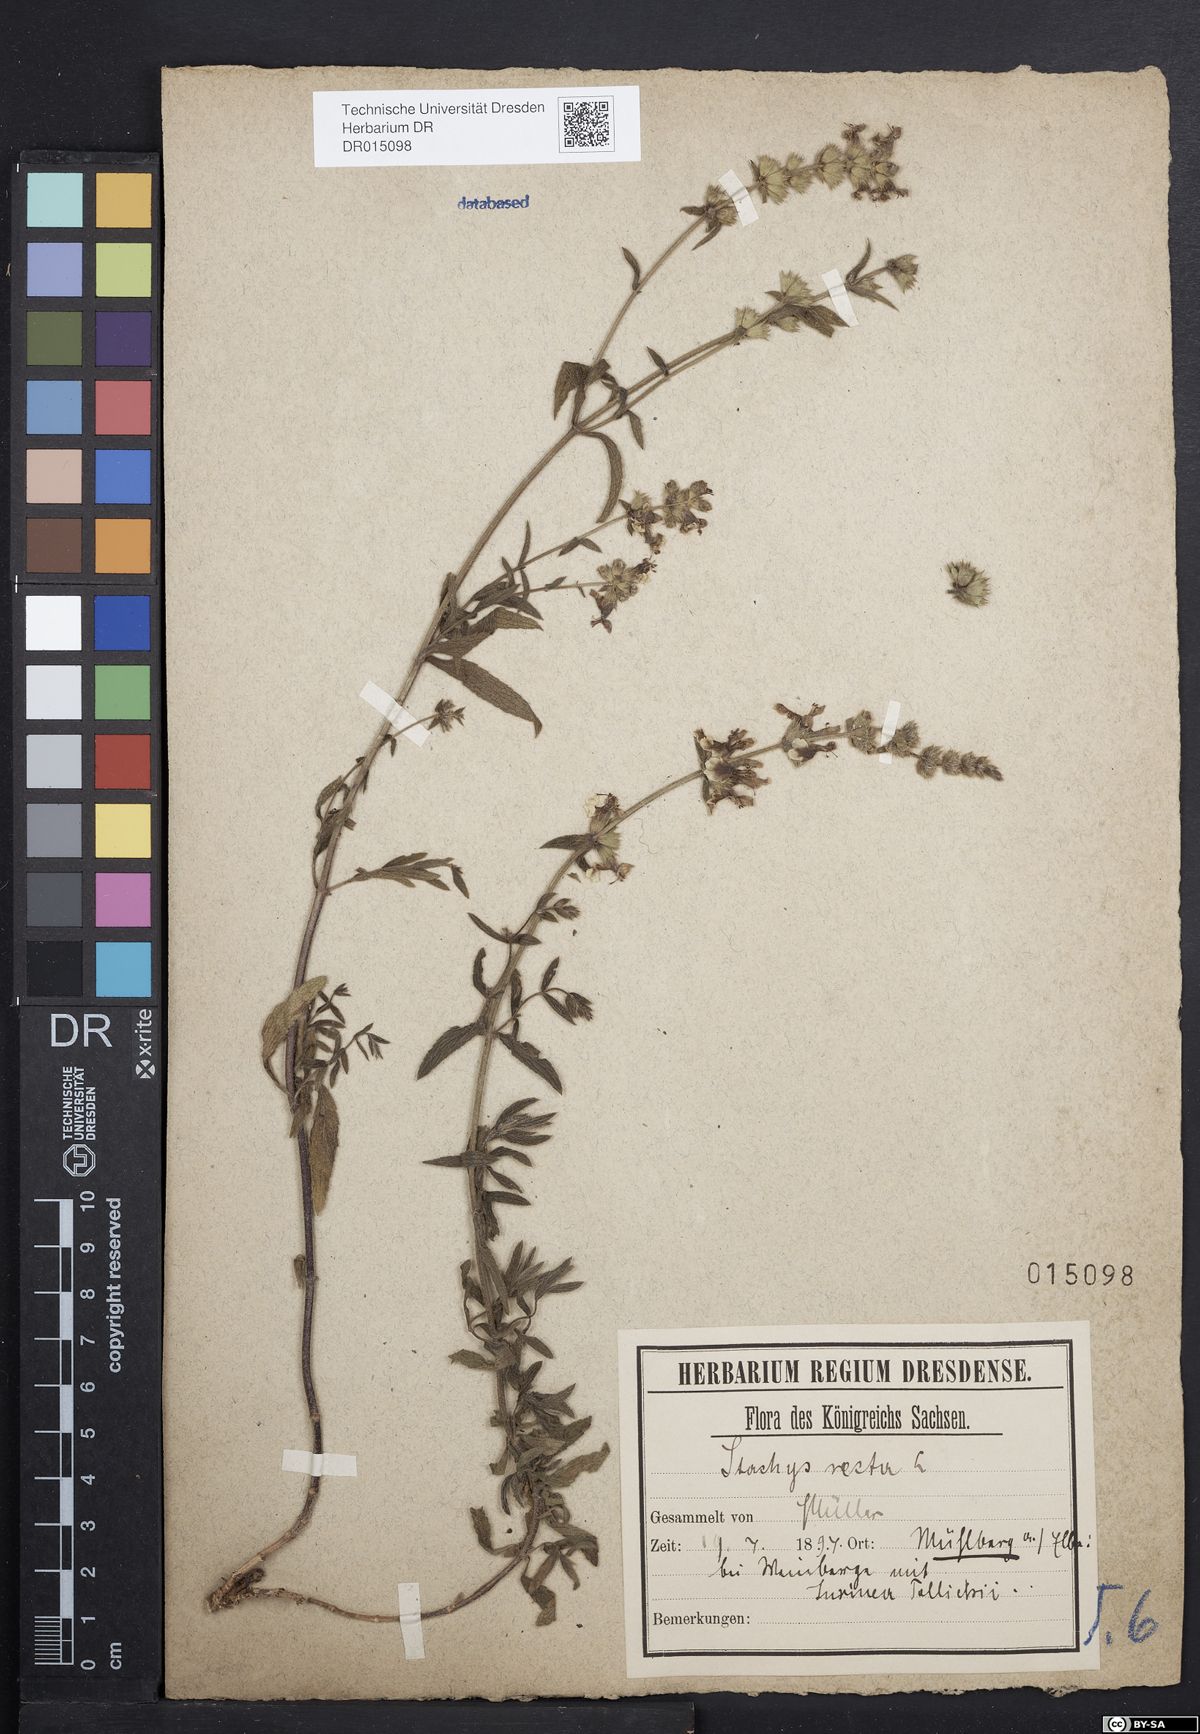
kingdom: Plantae
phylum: Tracheophyta
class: Magnoliopsida
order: Lamiales
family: Lamiaceae
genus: Stachys
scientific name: Stachys recta
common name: Perennial yellow-woundwort
